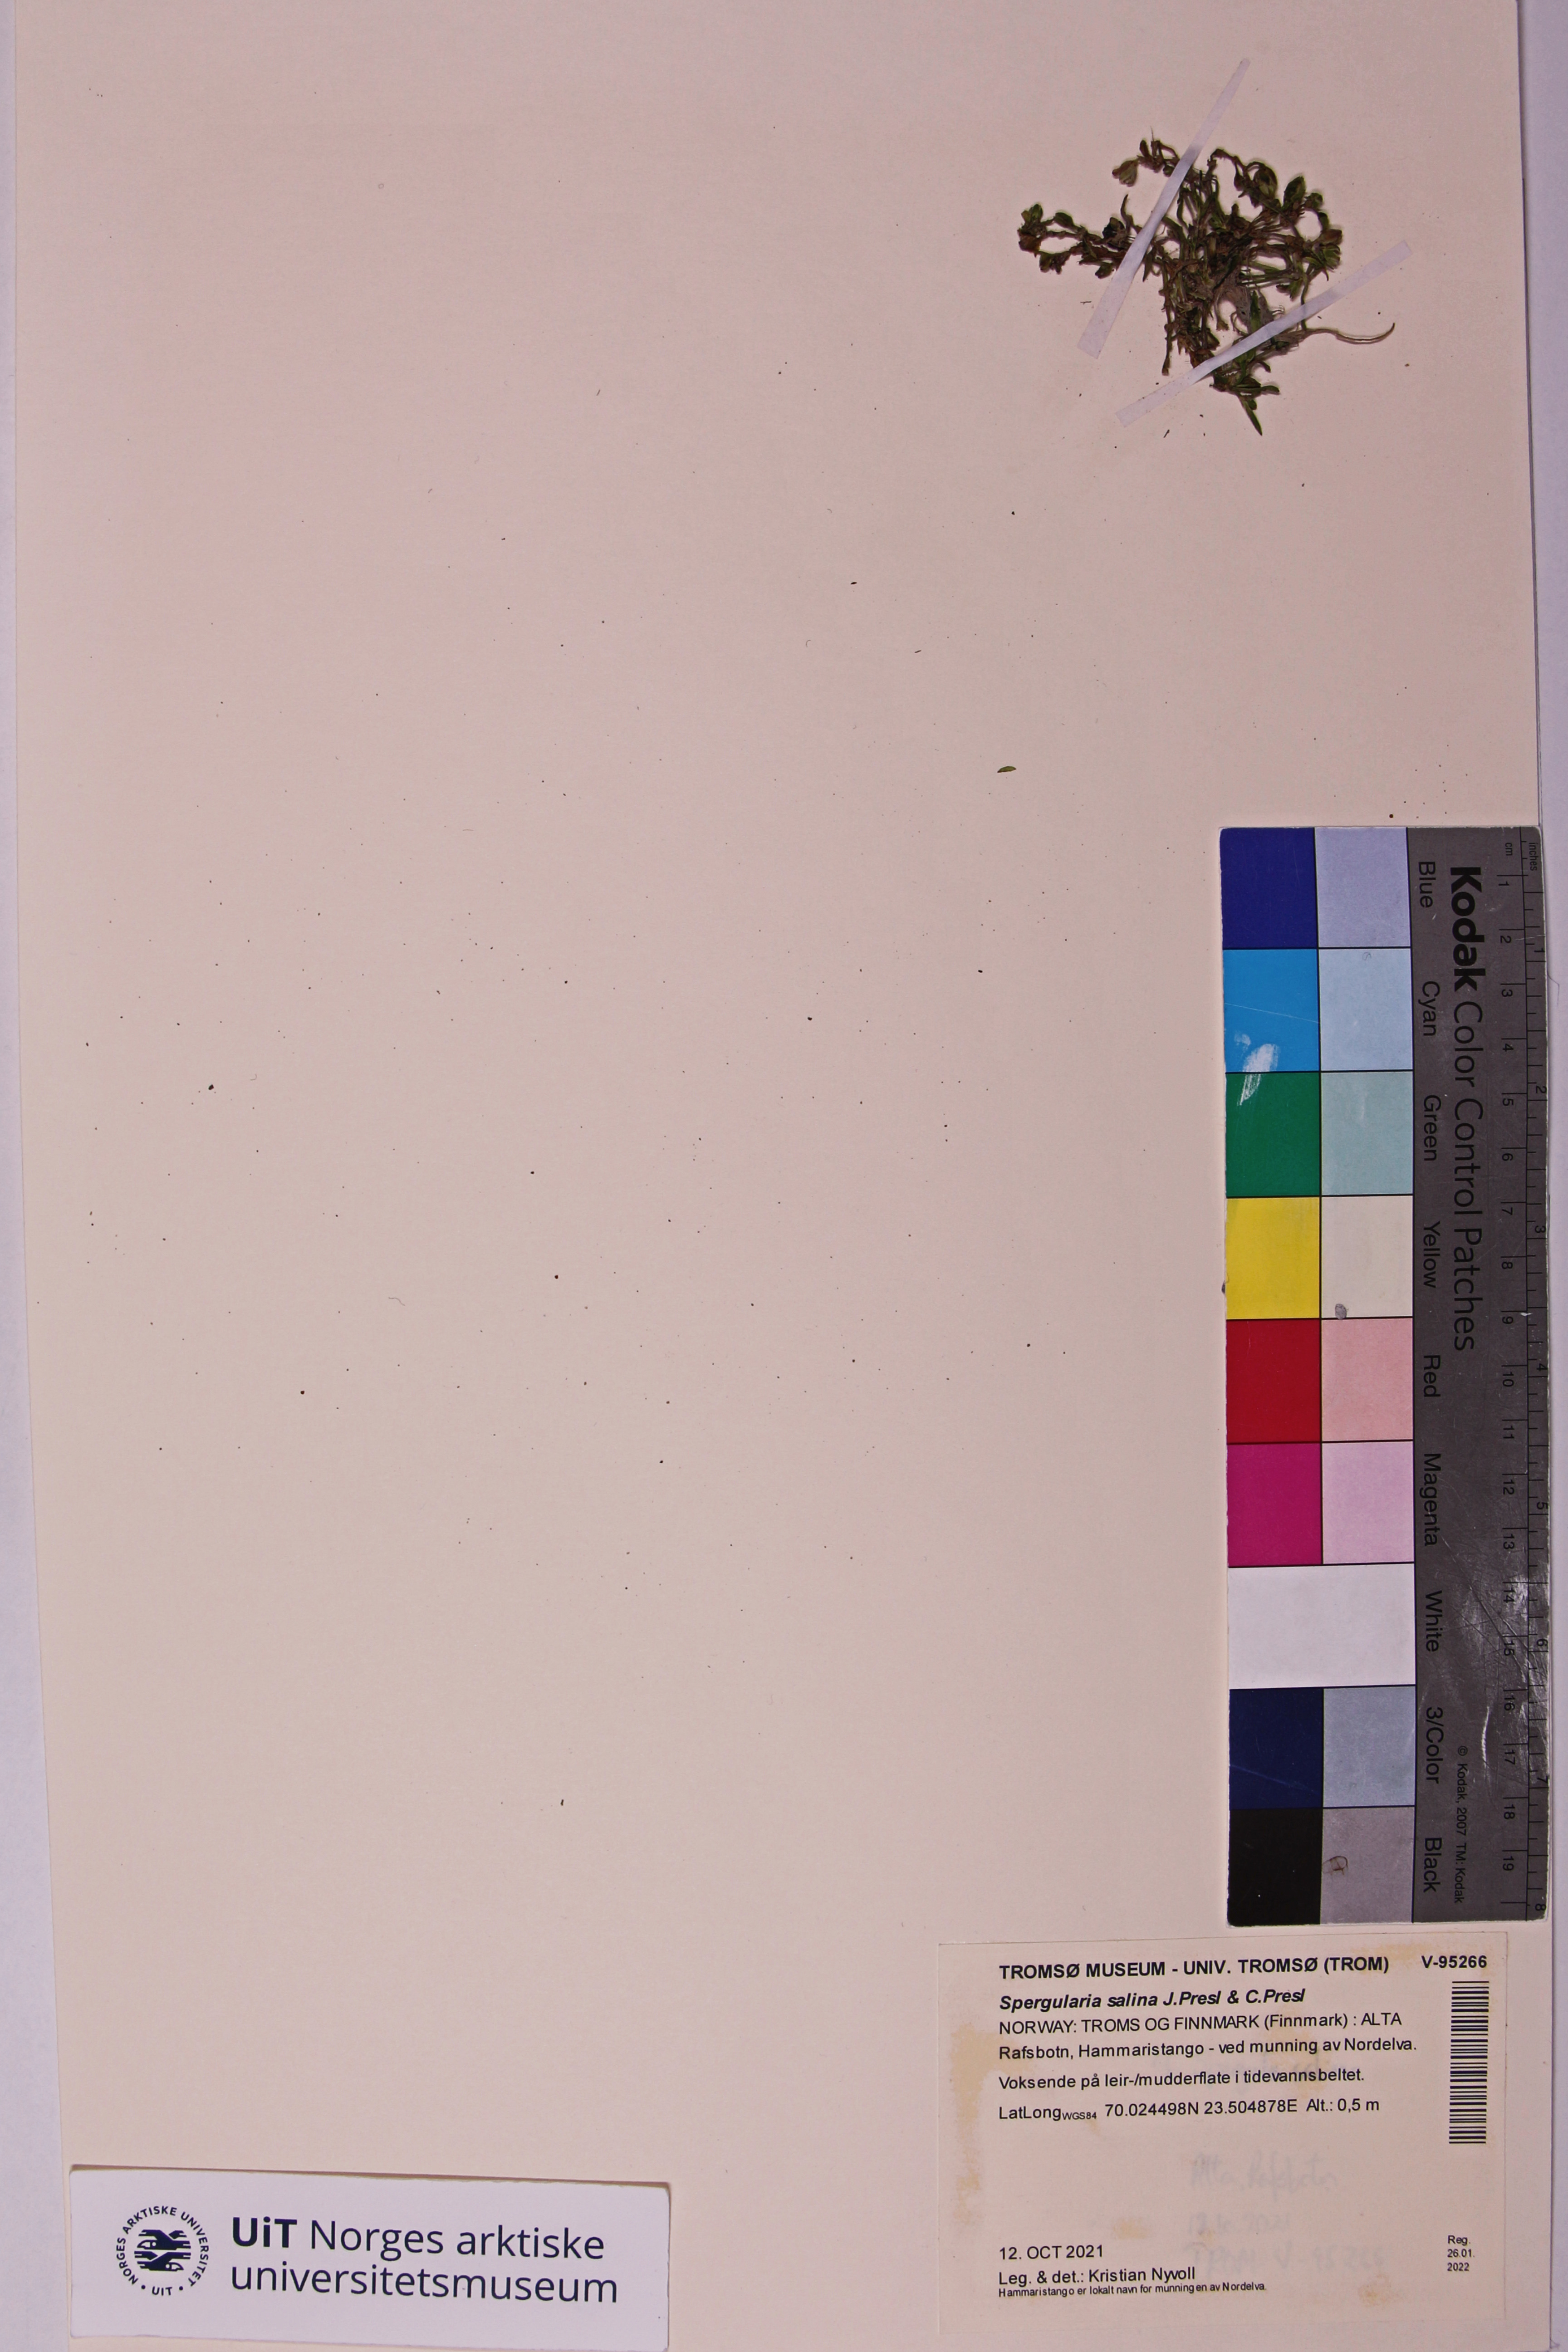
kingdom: Plantae
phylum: Tracheophyta
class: Magnoliopsida
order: Caryophyllales
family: Caryophyllaceae
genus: Spergularia
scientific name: Spergularia marina
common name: Lesser sea-spurrey
